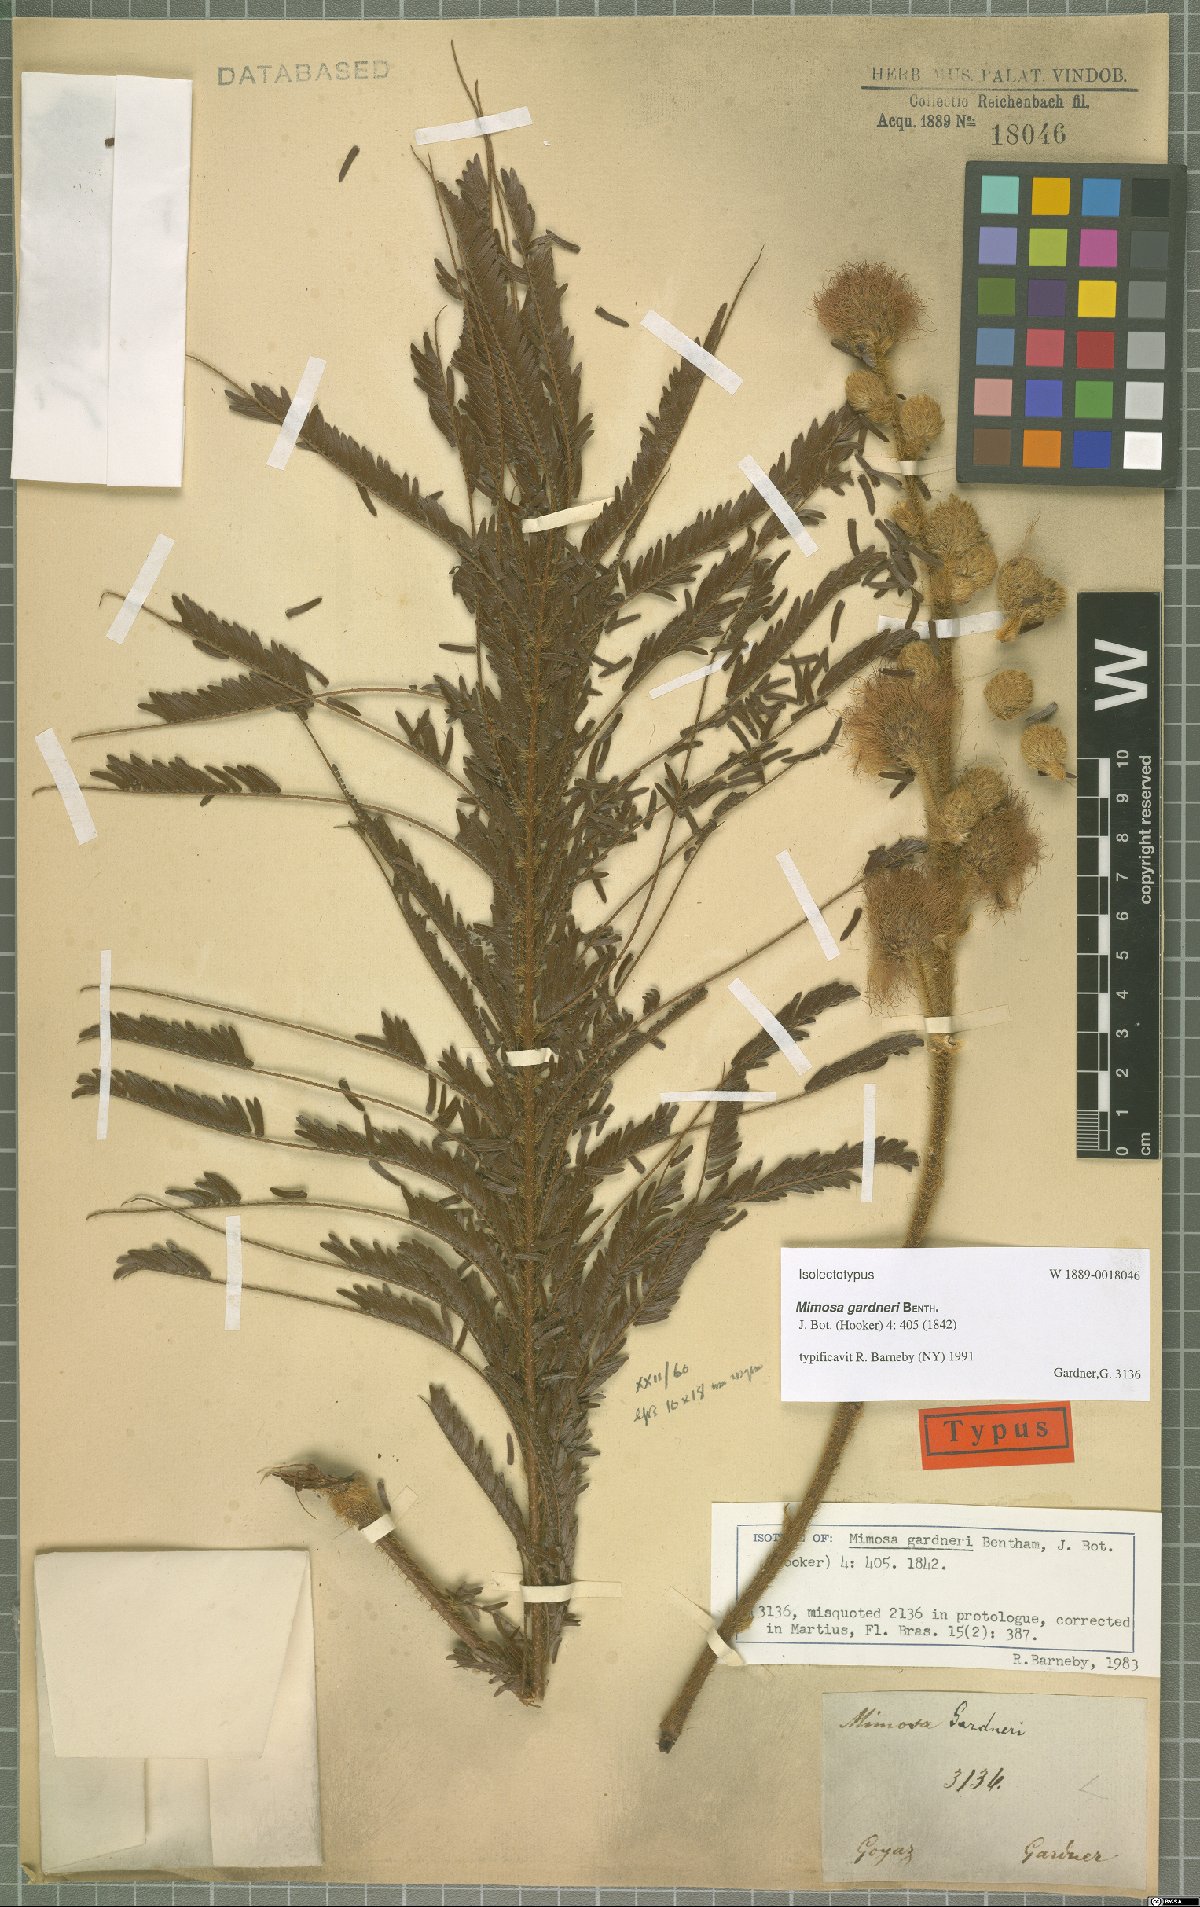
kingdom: Plantae
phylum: Tracheophyta
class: Magnoliopsida
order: Fabales
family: Fabaceae
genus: Mimosa
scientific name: Mimosa gardneri
